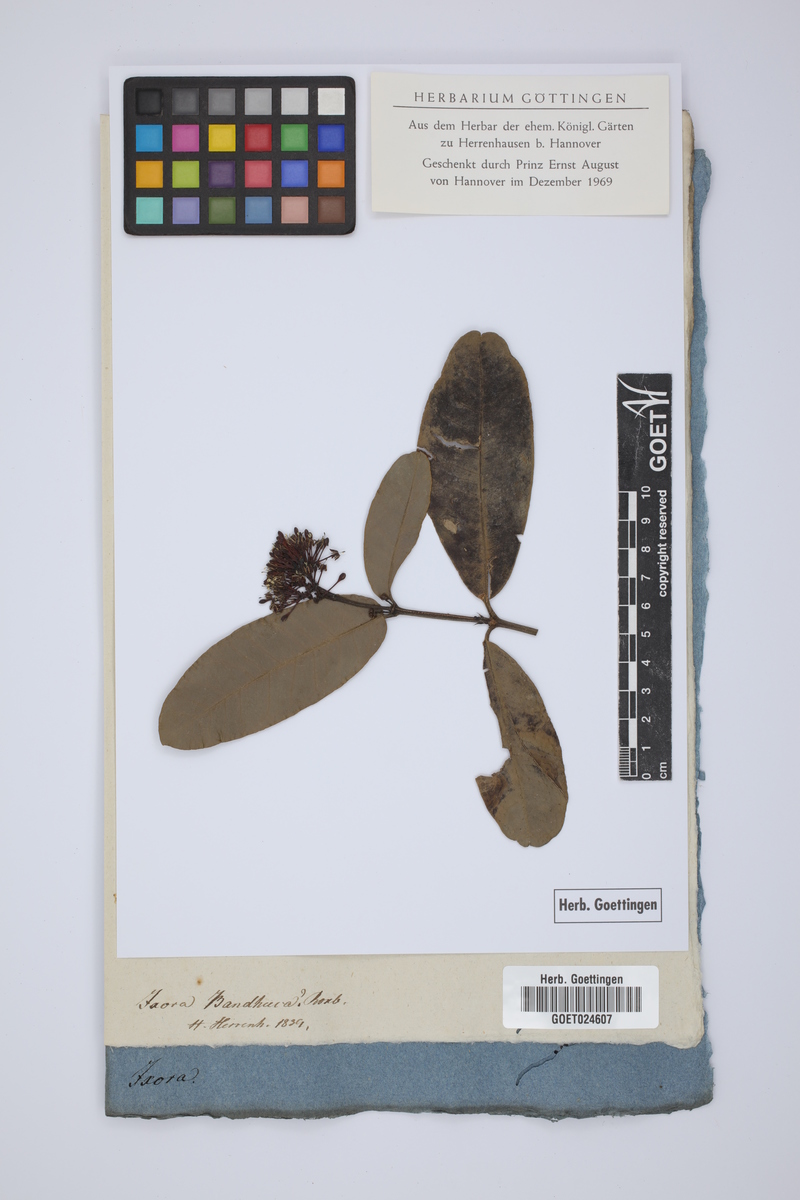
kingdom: Plantae
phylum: Tracheophyta
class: Magnoliopsida
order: Gentianales
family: Rubiaceae
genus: Ixora
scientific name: Ixora coccinea
